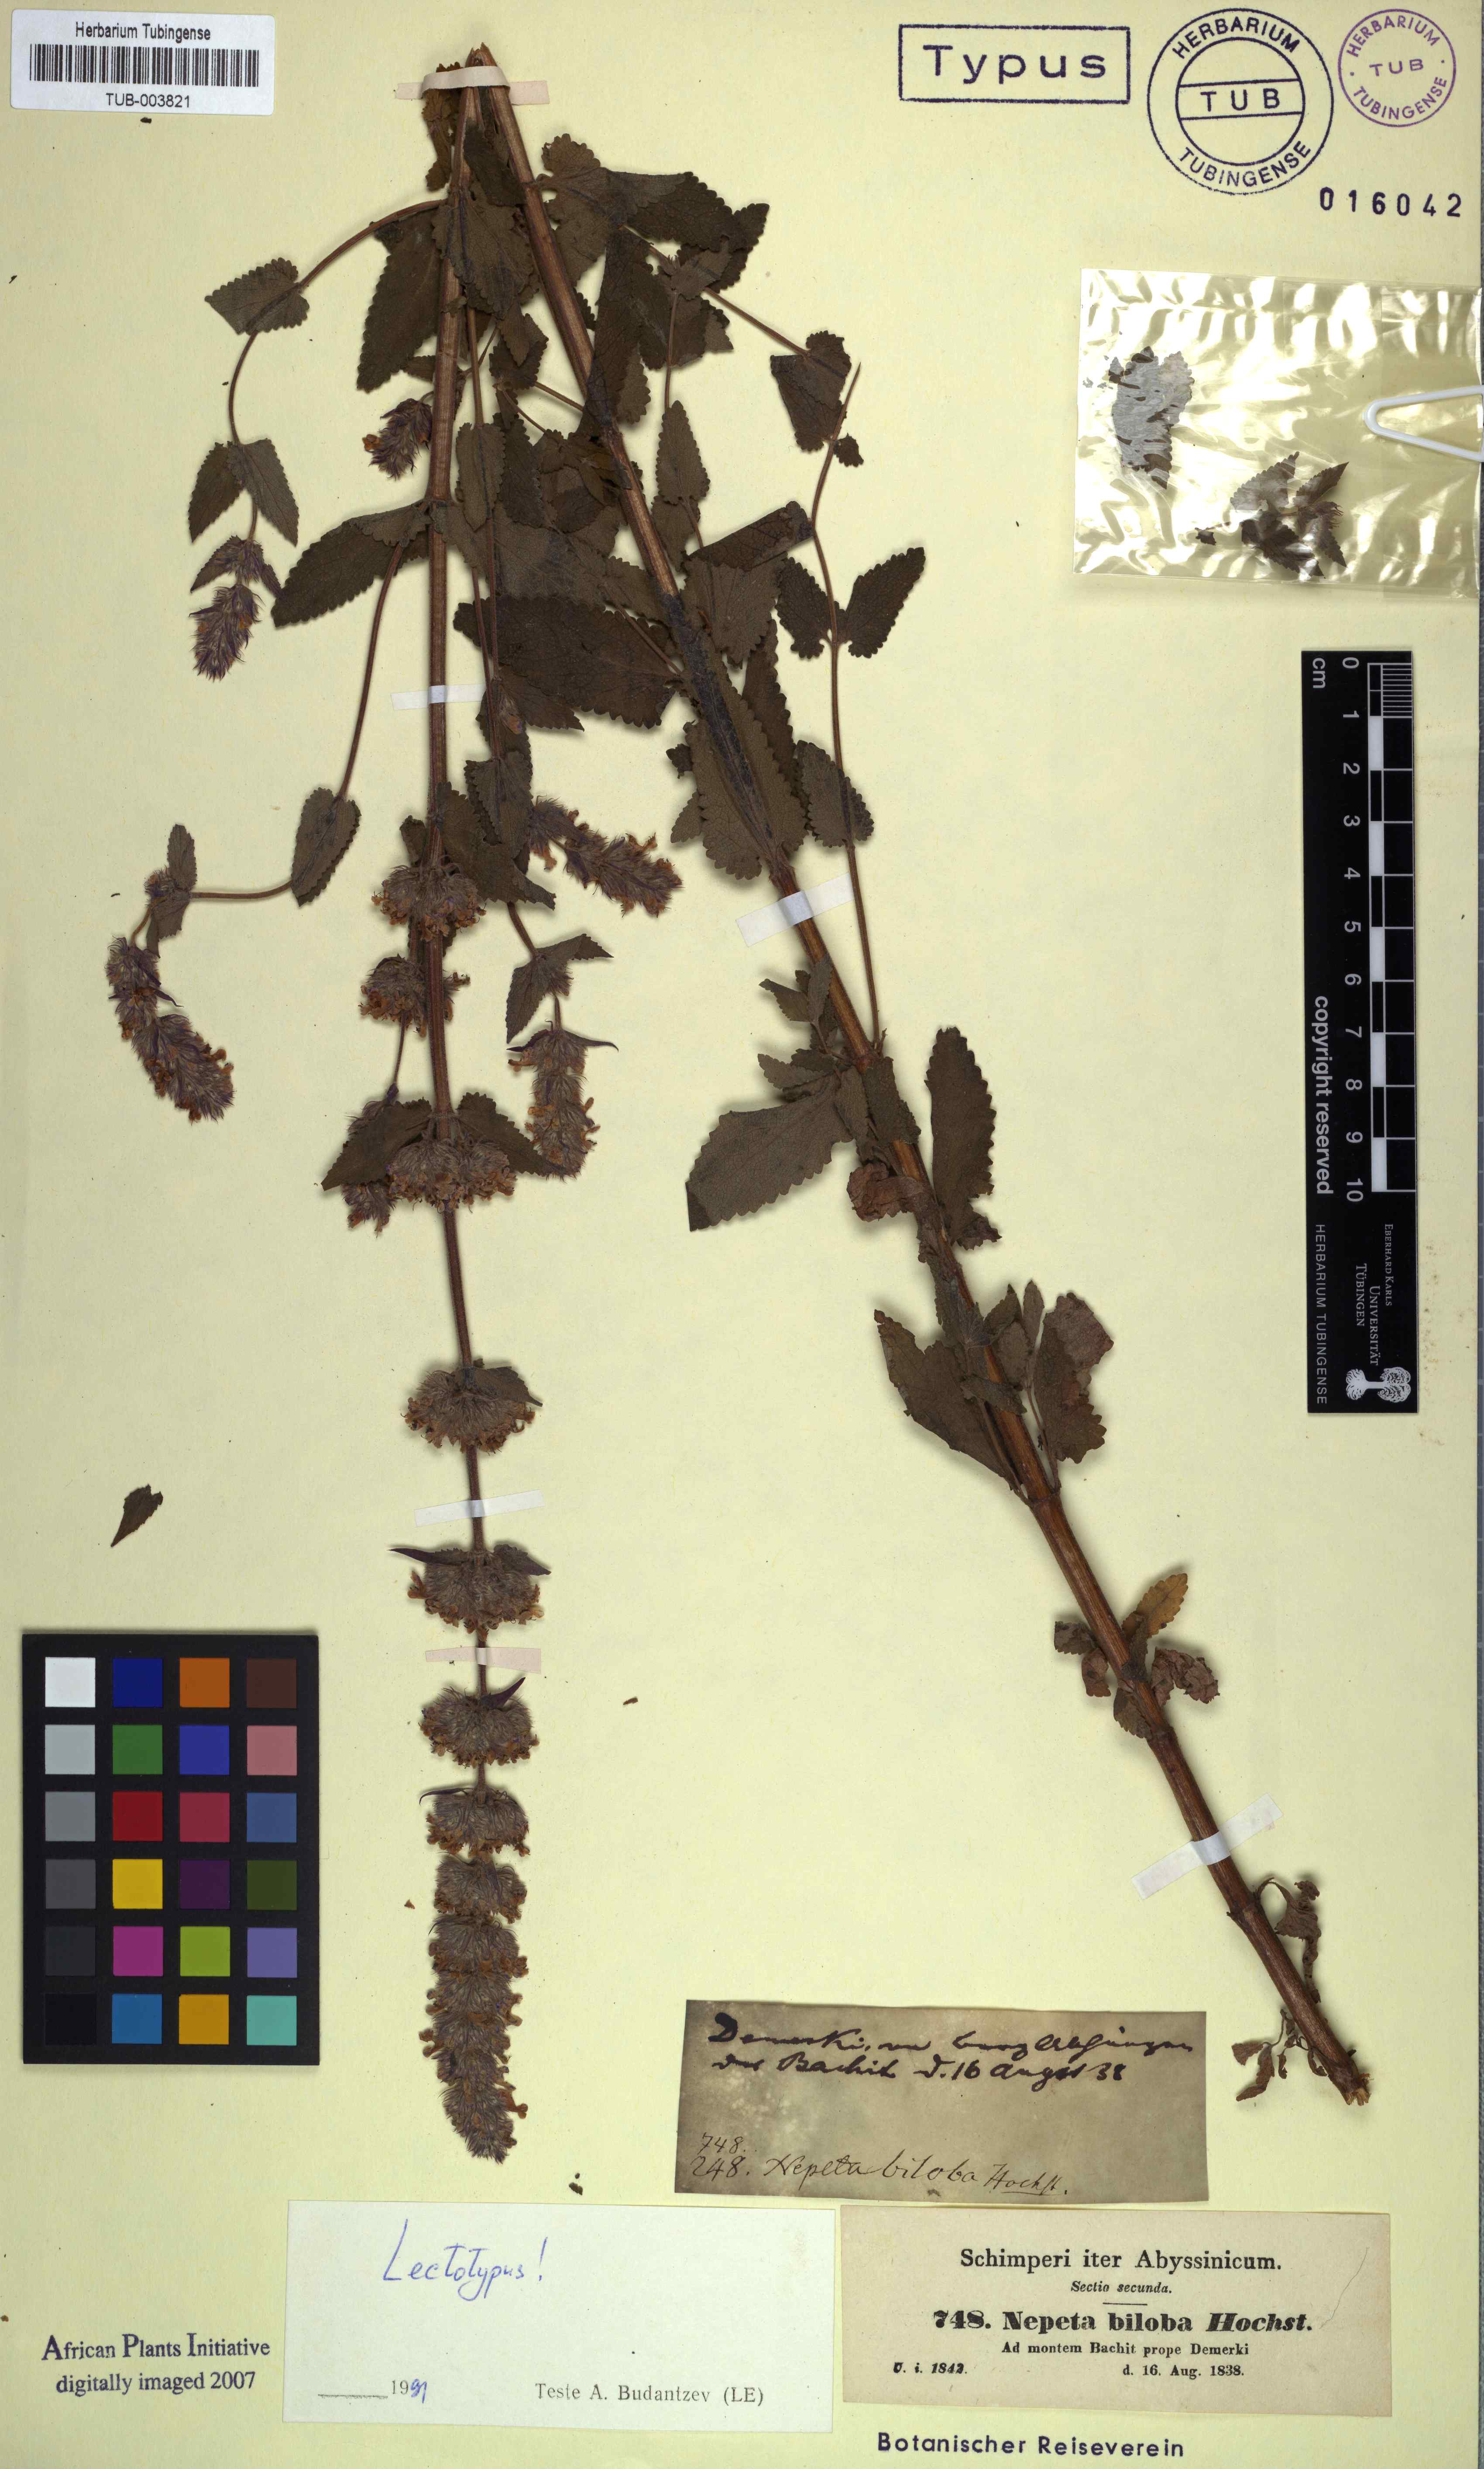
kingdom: Plantae
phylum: Tracheophyta
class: Magnoliopsida
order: Lamiales
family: Lamiaceae
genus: Nepeta
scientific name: Nepeta azurea
